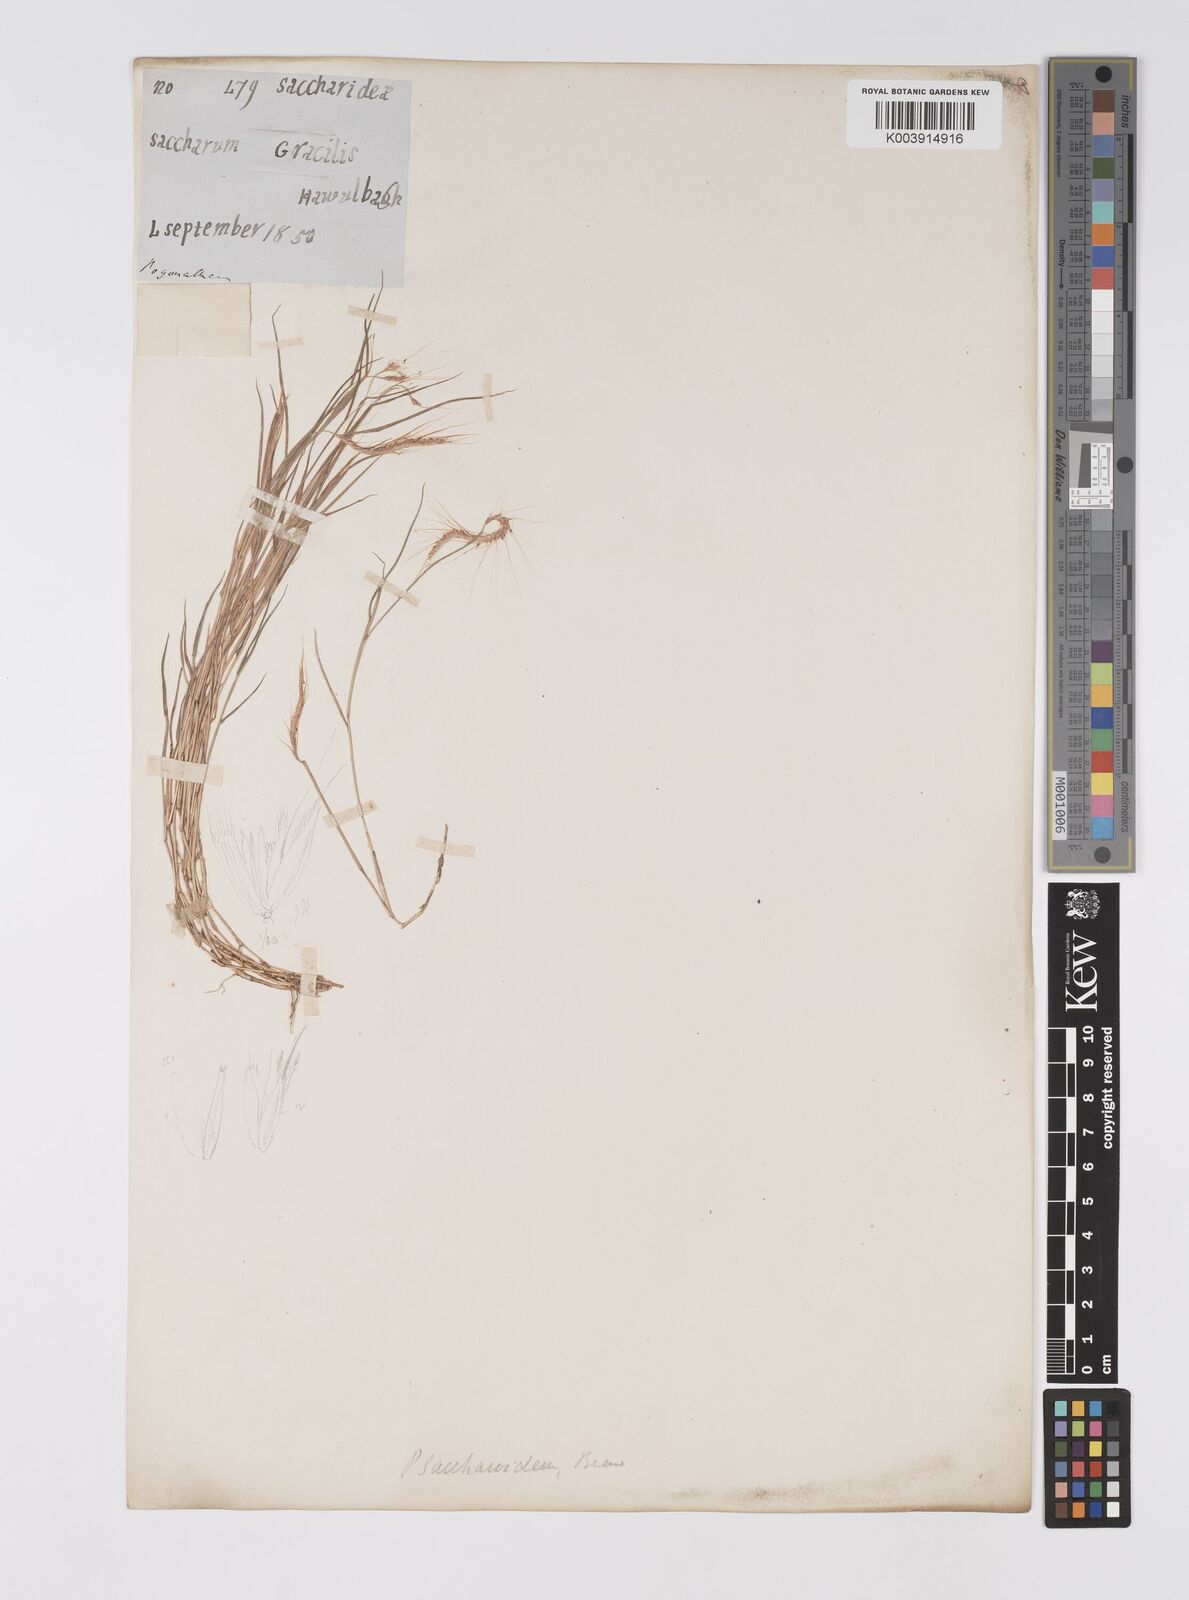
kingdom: Plantae
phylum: Tracheophyta
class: Liliopsida
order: Poales
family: Poaceae
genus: Pogonatherum
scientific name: Pogonatherum paniceum
